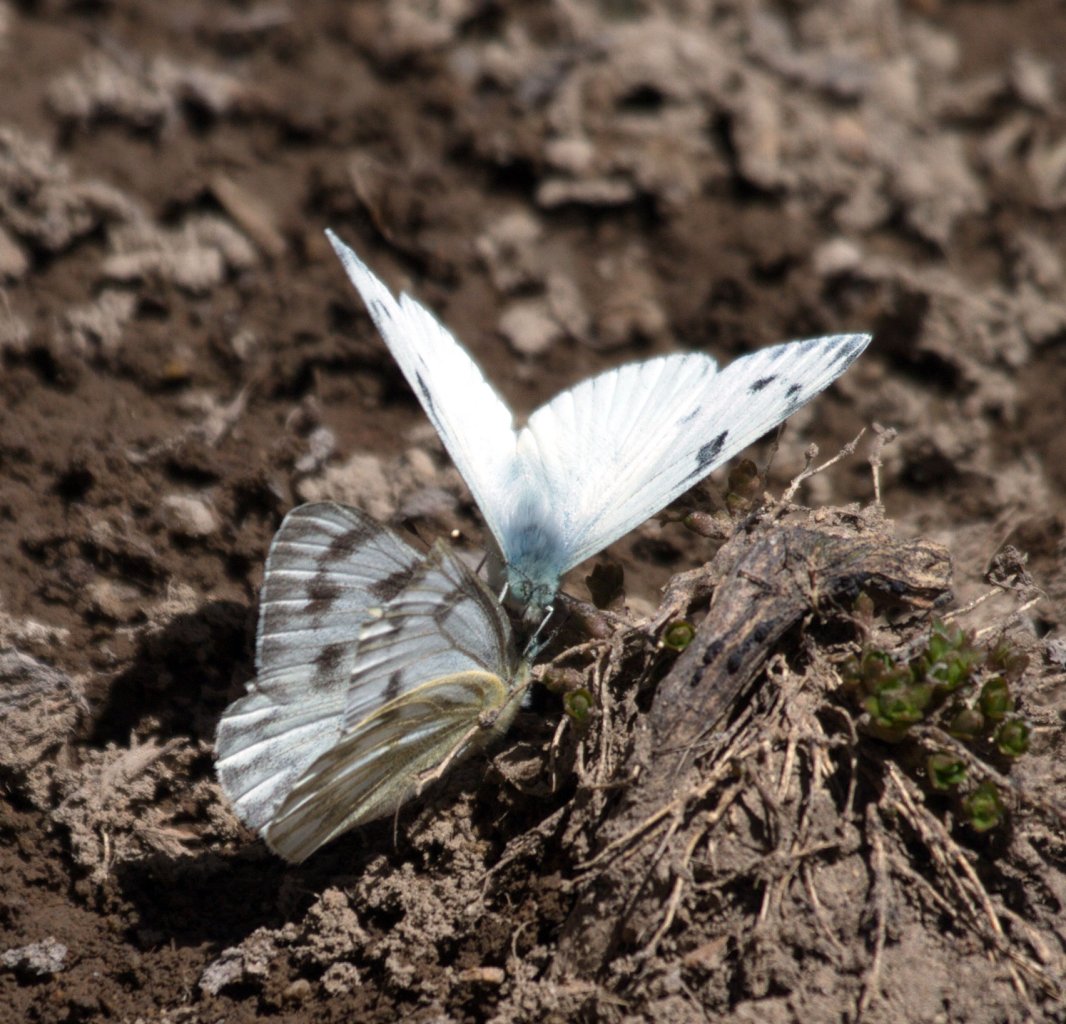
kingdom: Animalia
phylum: Arthropoda
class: Insecta
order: Lepidoptera
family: Pieridae
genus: Pontia
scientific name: Pontia occidentalis
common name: Western White
